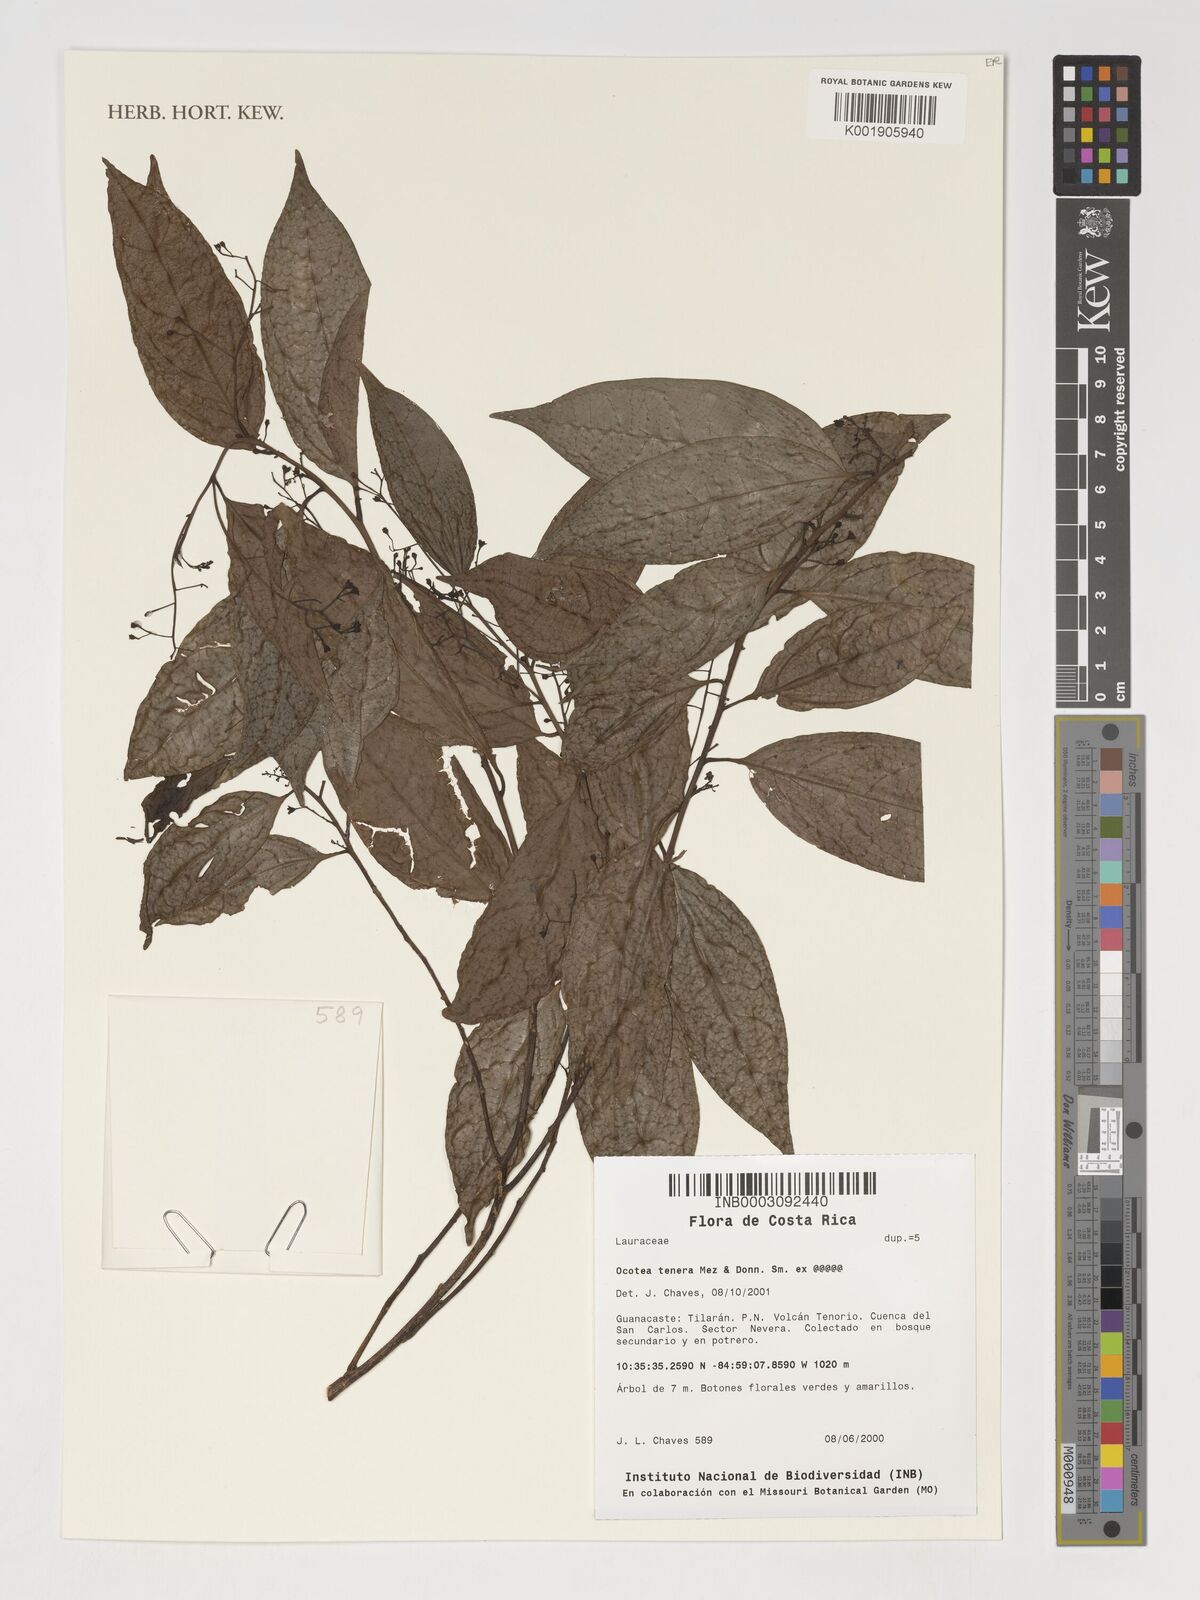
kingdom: Plantae
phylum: Tracheophyta
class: Magnoliopsida
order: Laurales
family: Lauraceae
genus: Ocotea
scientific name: Ocotea tenera
